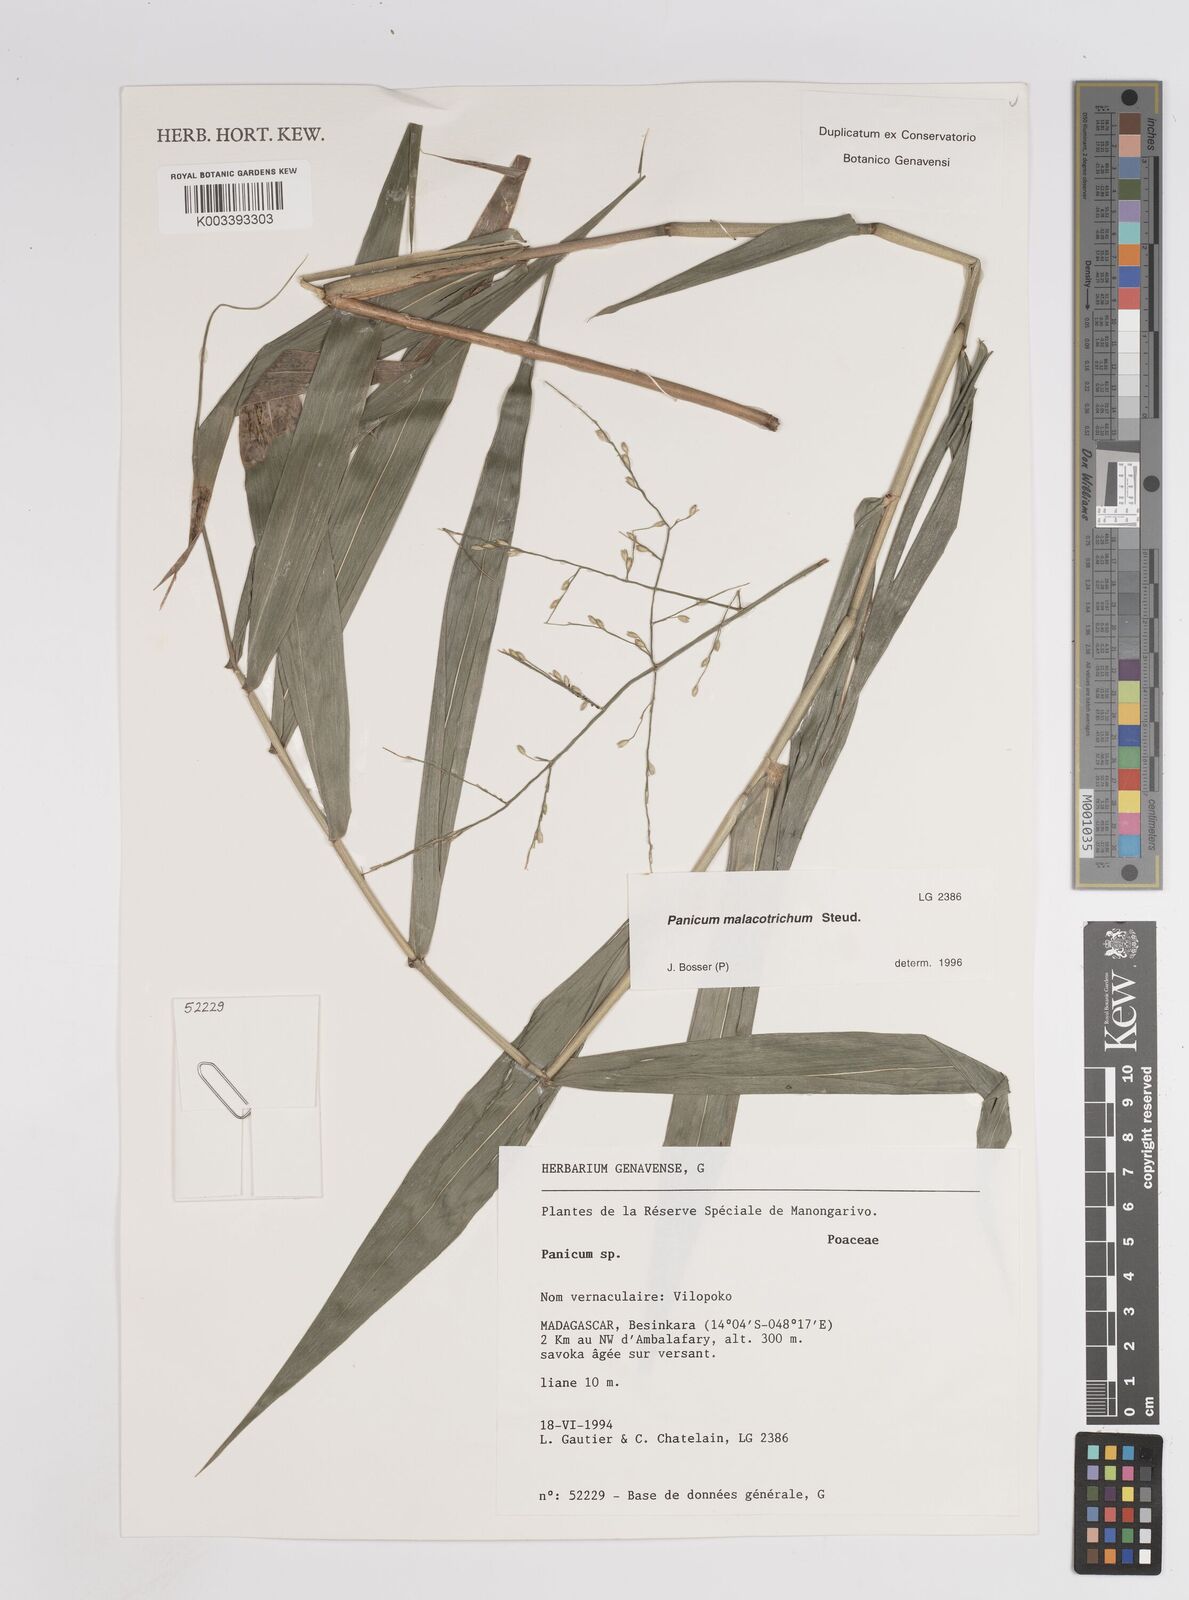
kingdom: Plantae
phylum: Tracheophyta
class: Liliopsida
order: Poales
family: Poaceae
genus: Panicum
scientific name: Panicum malacotrichum
